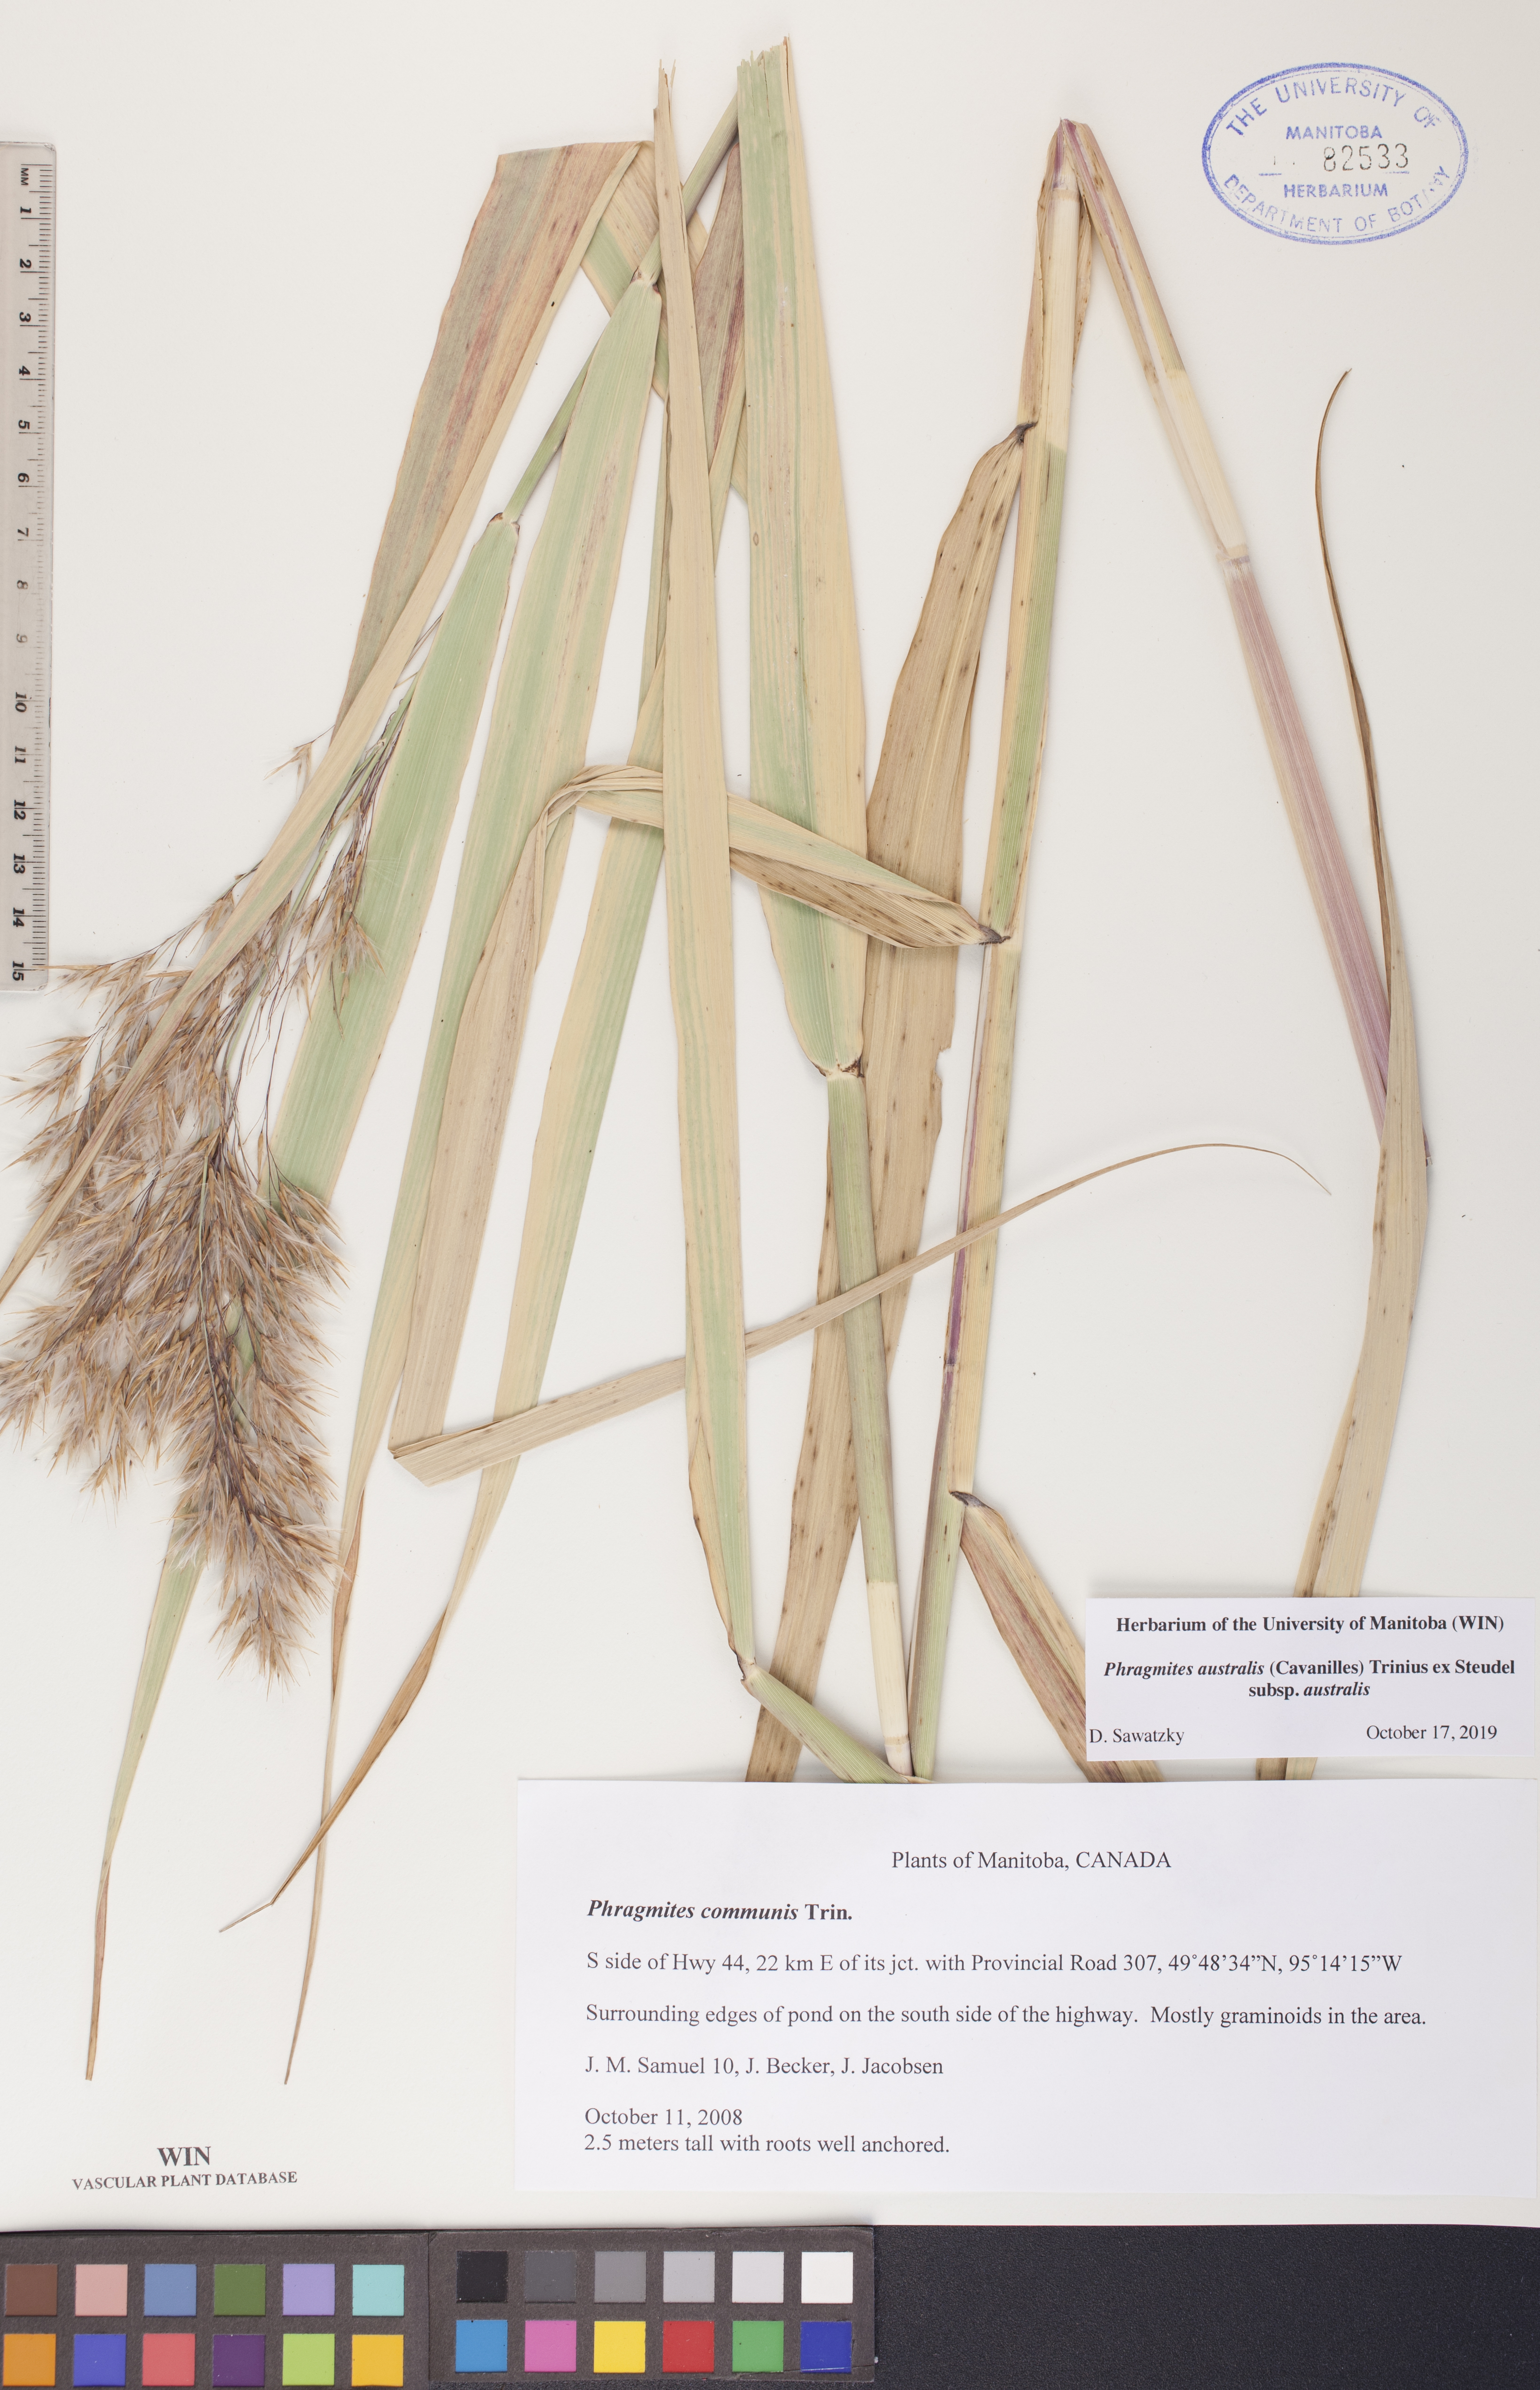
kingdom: Plantae
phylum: Tracheophyta
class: Liliopsida
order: Poales
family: Poaceae
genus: Phragmites
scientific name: Phragmites australis
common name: Common reed
